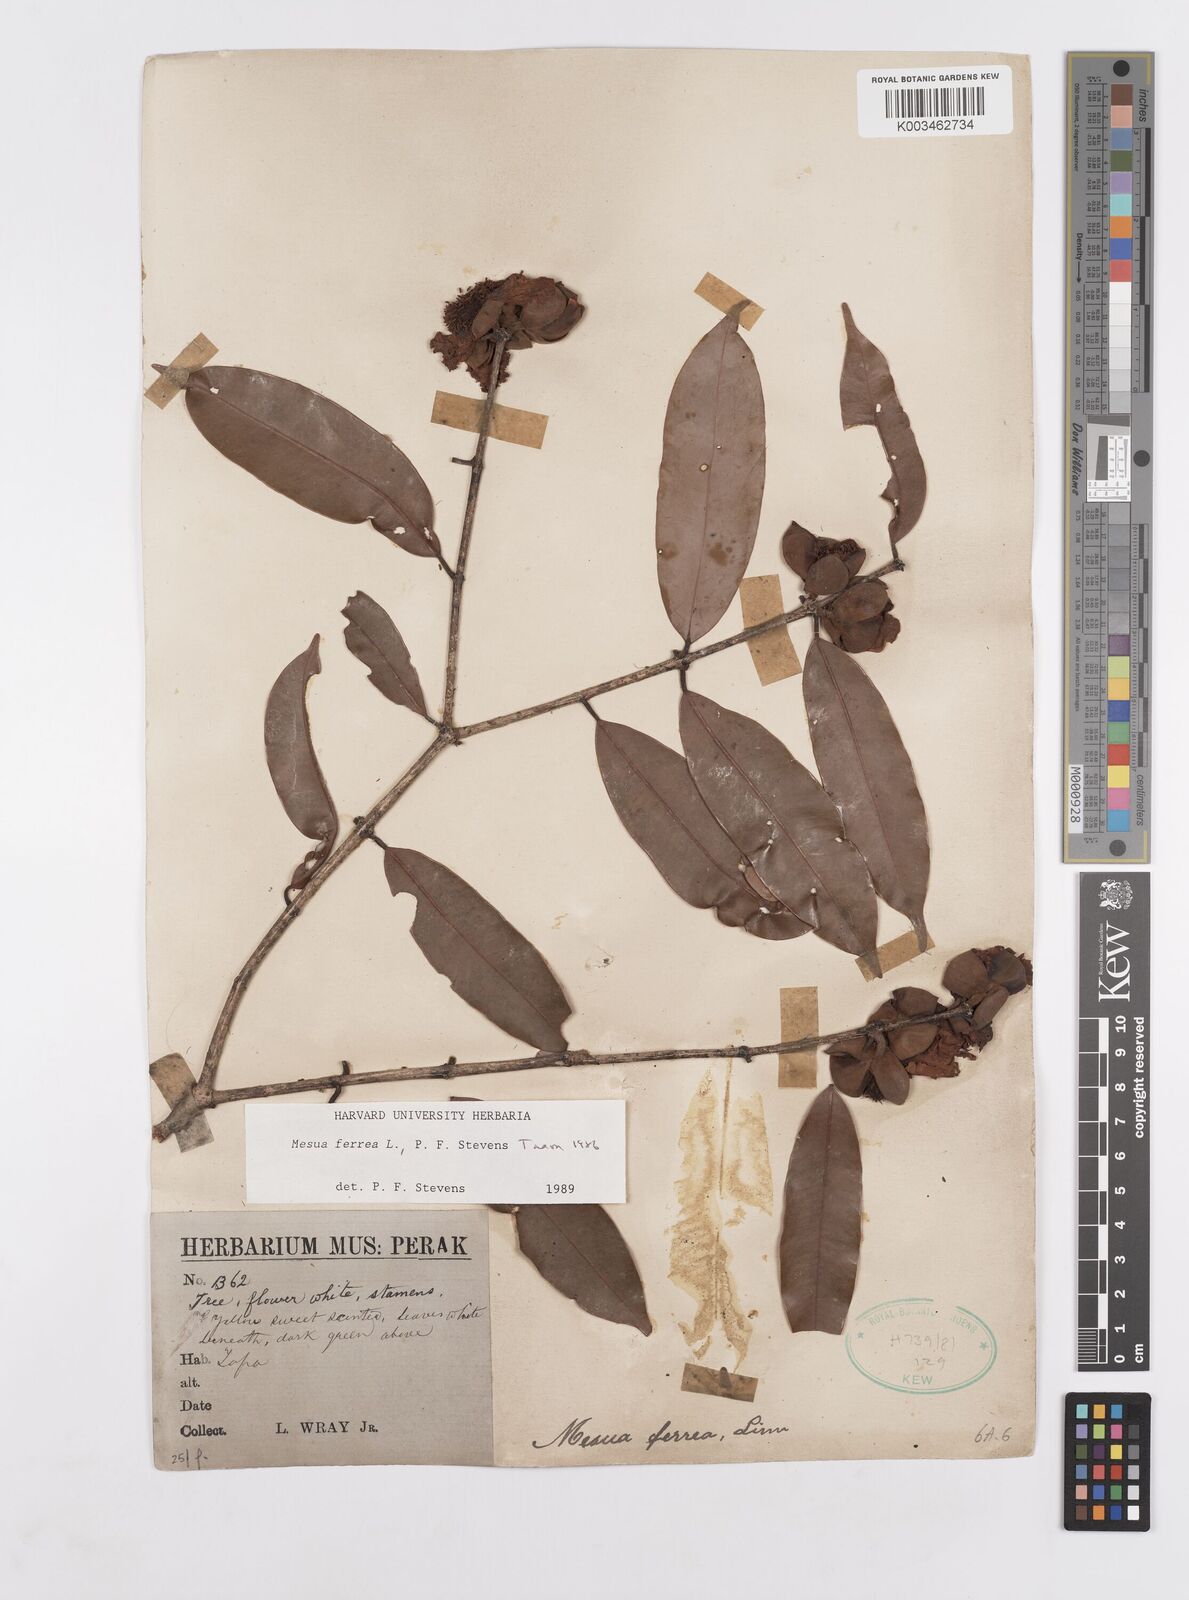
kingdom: Plantae
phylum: Tracheophyta
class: Magnoliopsida
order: Malpighiales
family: Calophyllaceae
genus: Mesua
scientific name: Mesua ferrea
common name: Mesua
